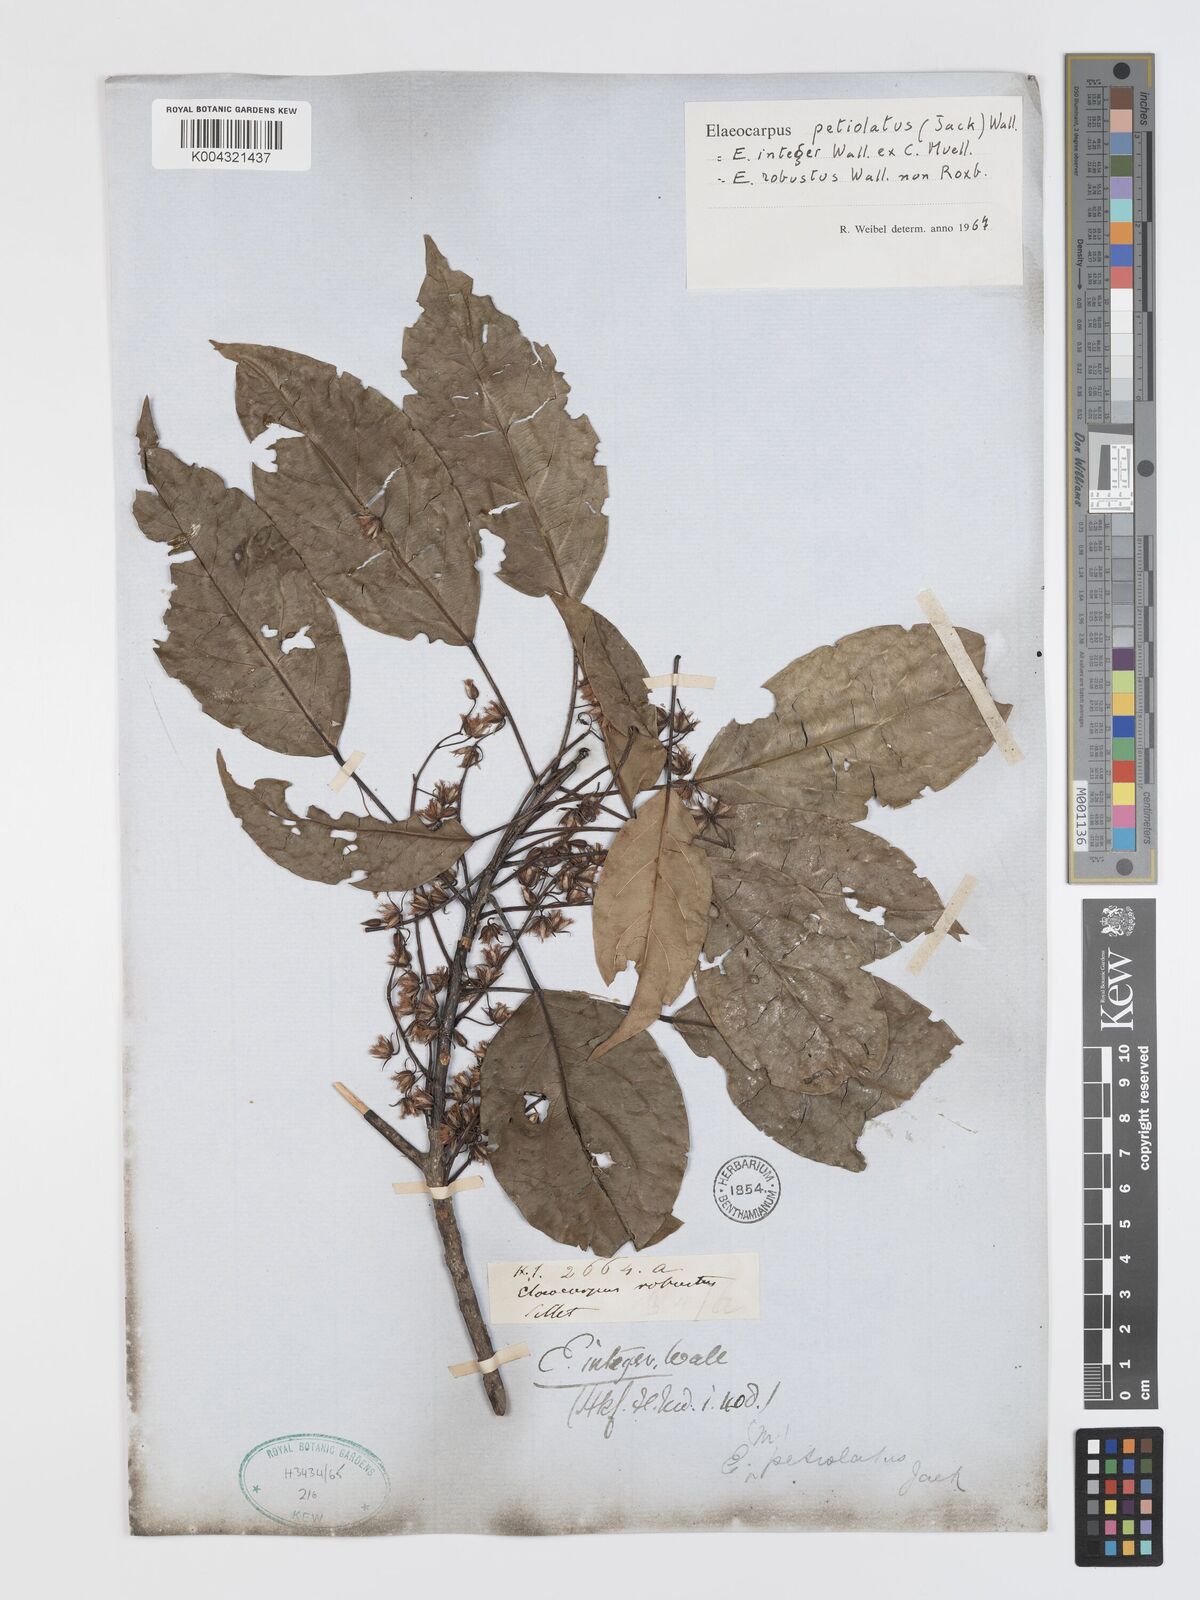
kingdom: Plantae
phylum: Tracheophyta
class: Magnoliopsida
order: Oxalidales
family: Elaeocarpaceae
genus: Elaeocarpus
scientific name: Elaeocarpus petiolatus
